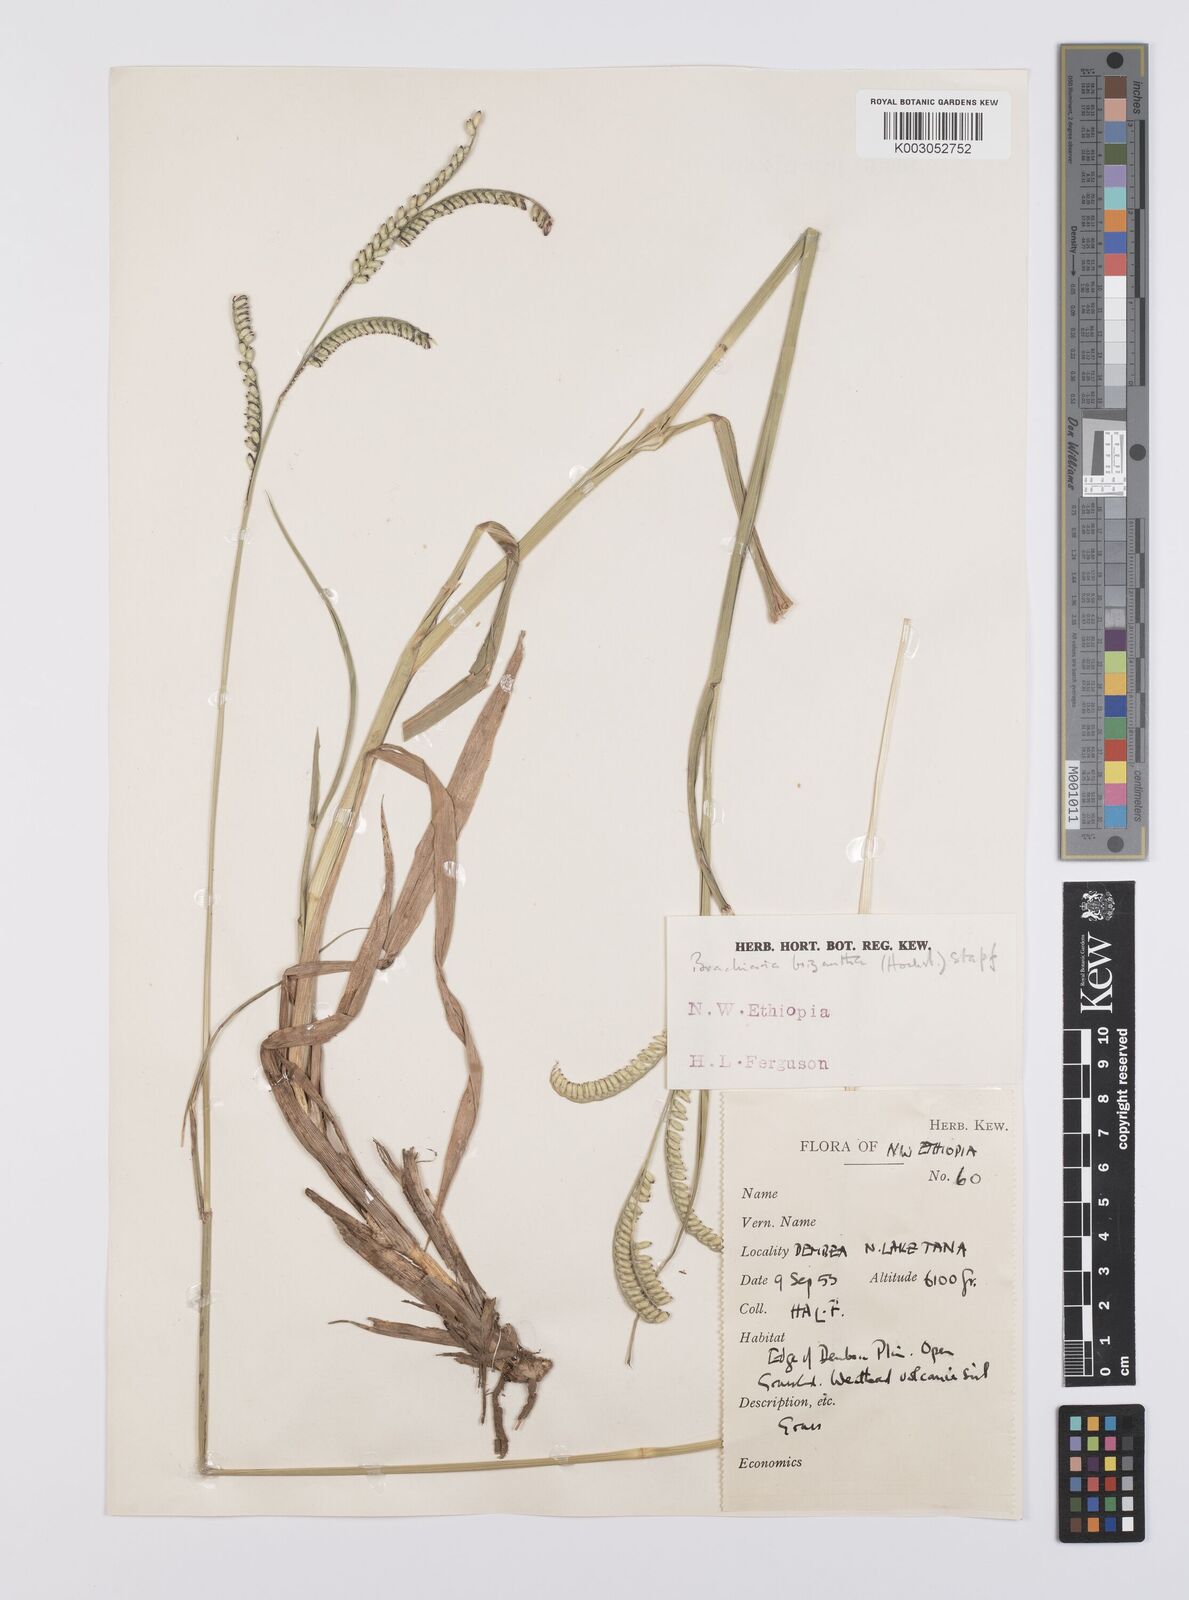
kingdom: Plantae
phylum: Tracheophyta
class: Liliopsida
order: Poales
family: Poaceae
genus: Urochloa
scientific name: Urochloa brizantha
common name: Palisade signalgrass
